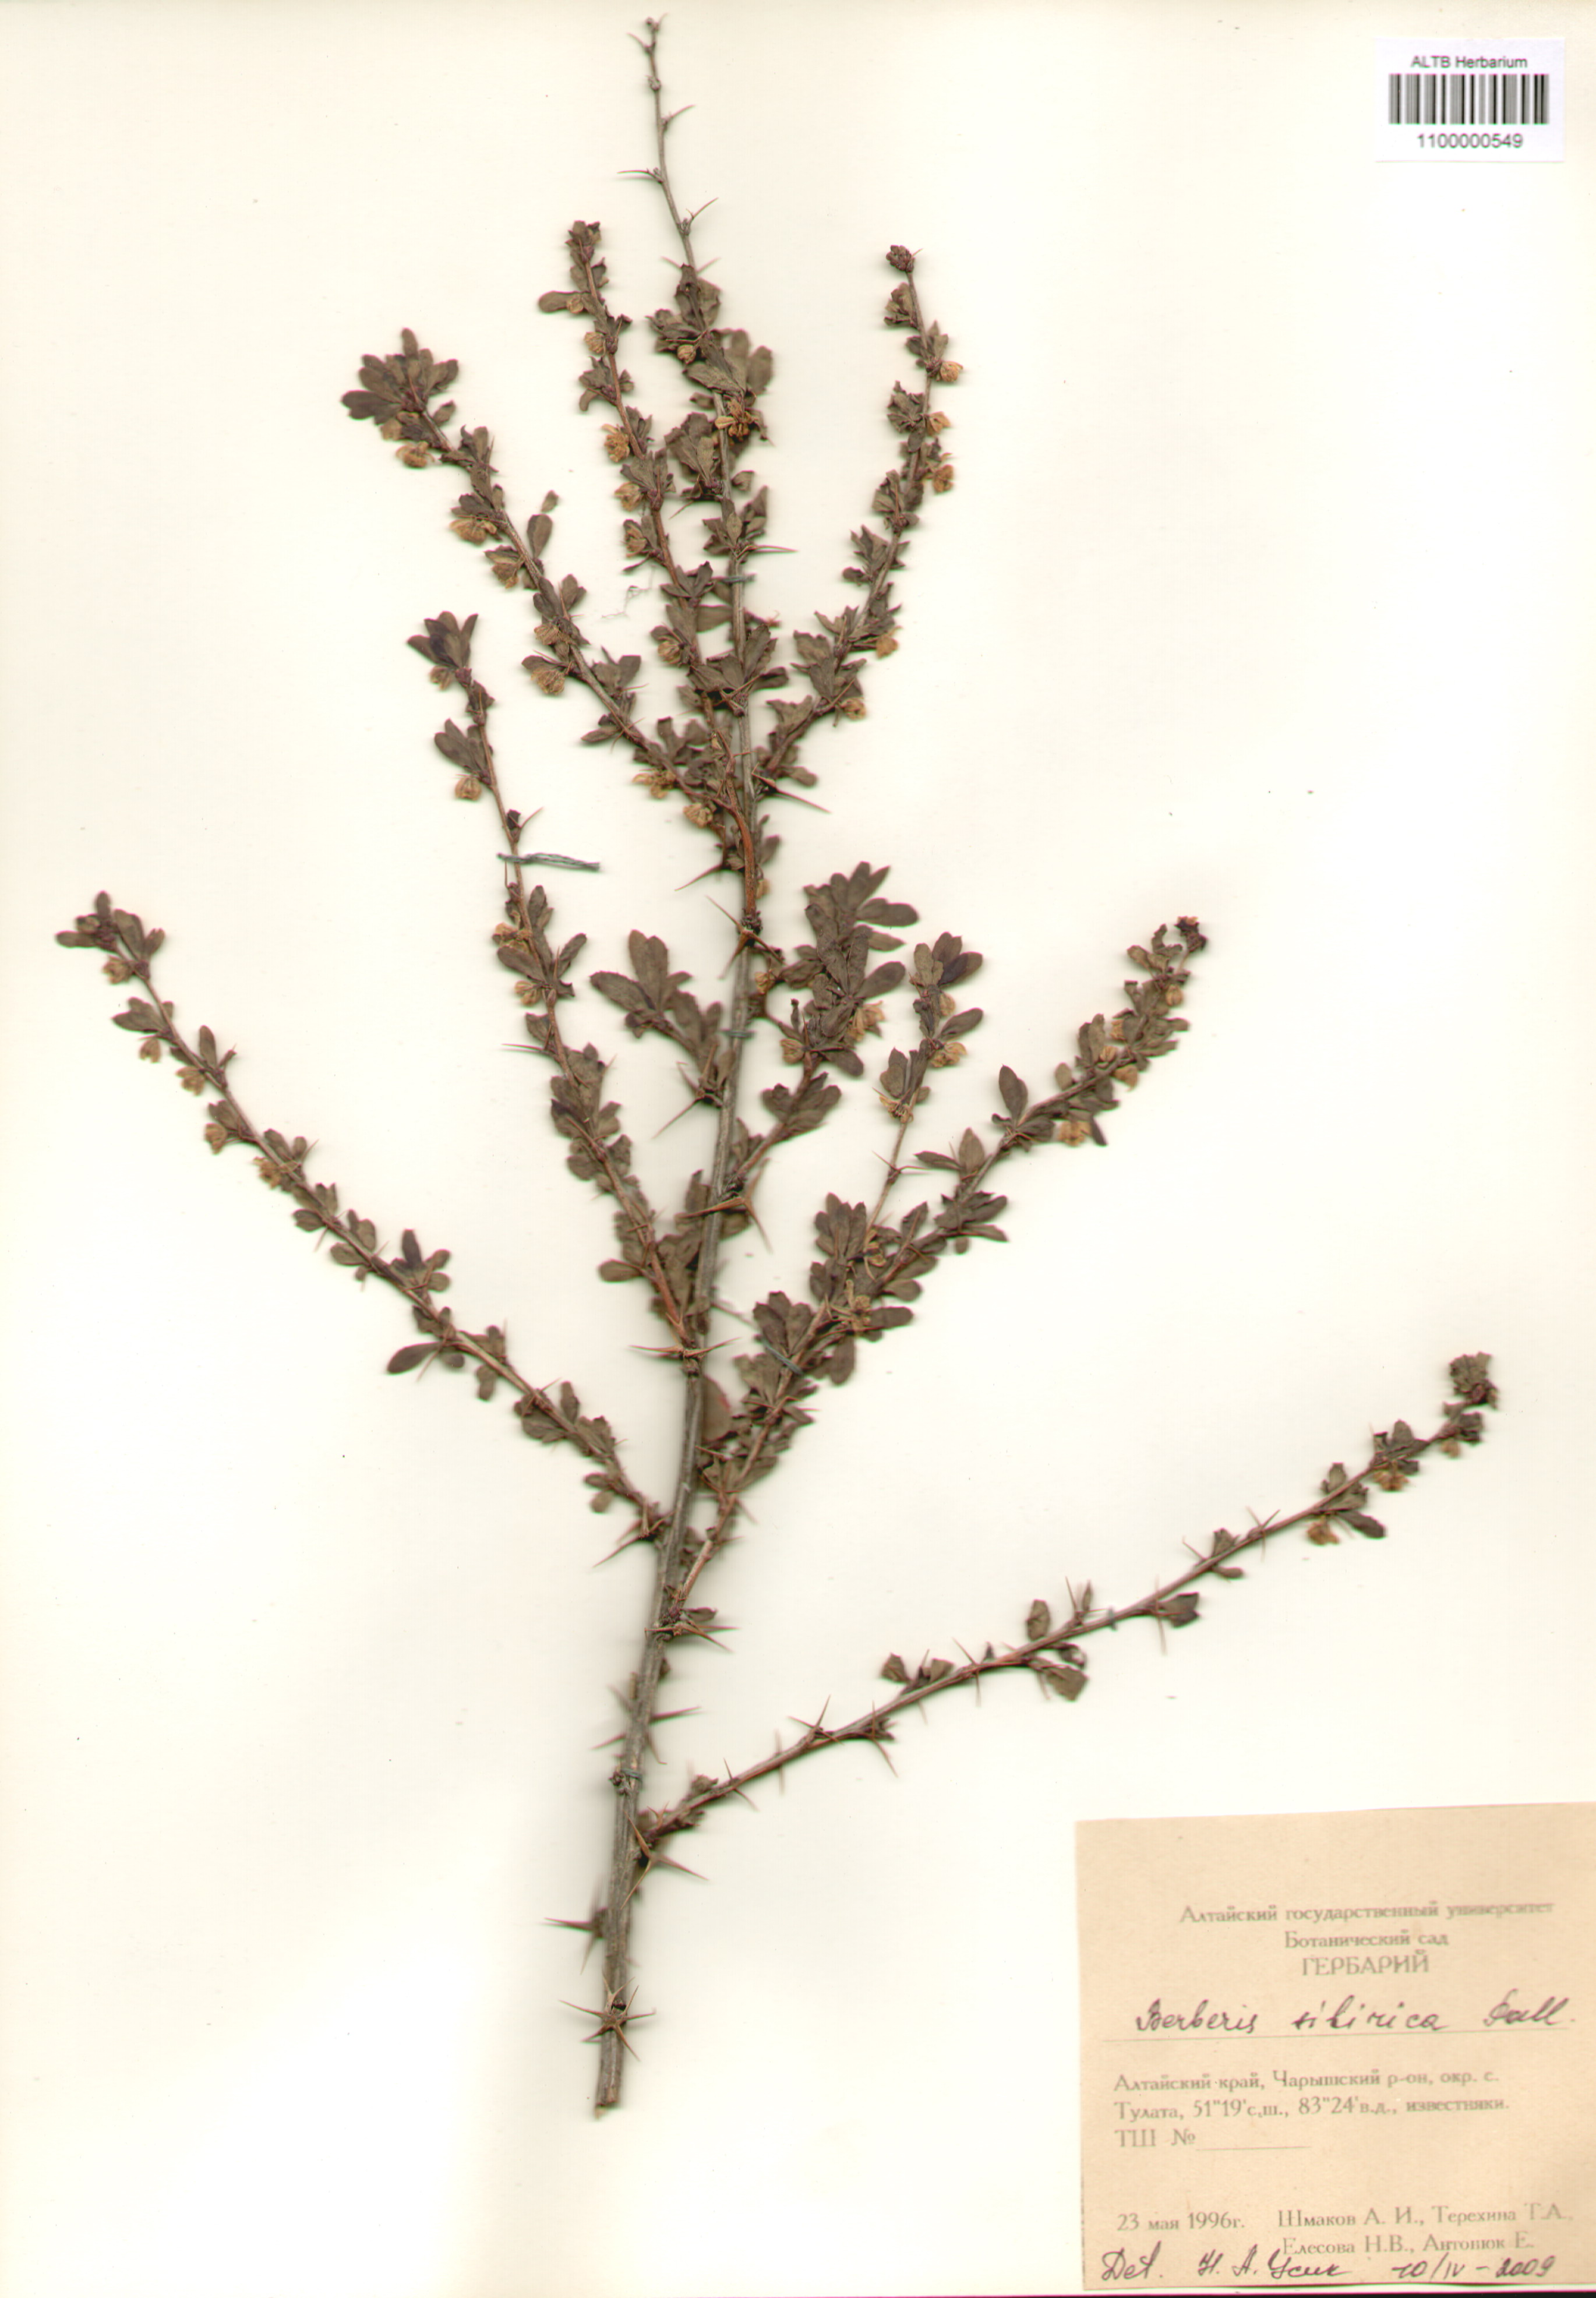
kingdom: Plantae
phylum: Tracheophyta
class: Magnoliopsida
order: Ranunculales
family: Berberidaceae
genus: Berberis
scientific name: Berberis sibirica
